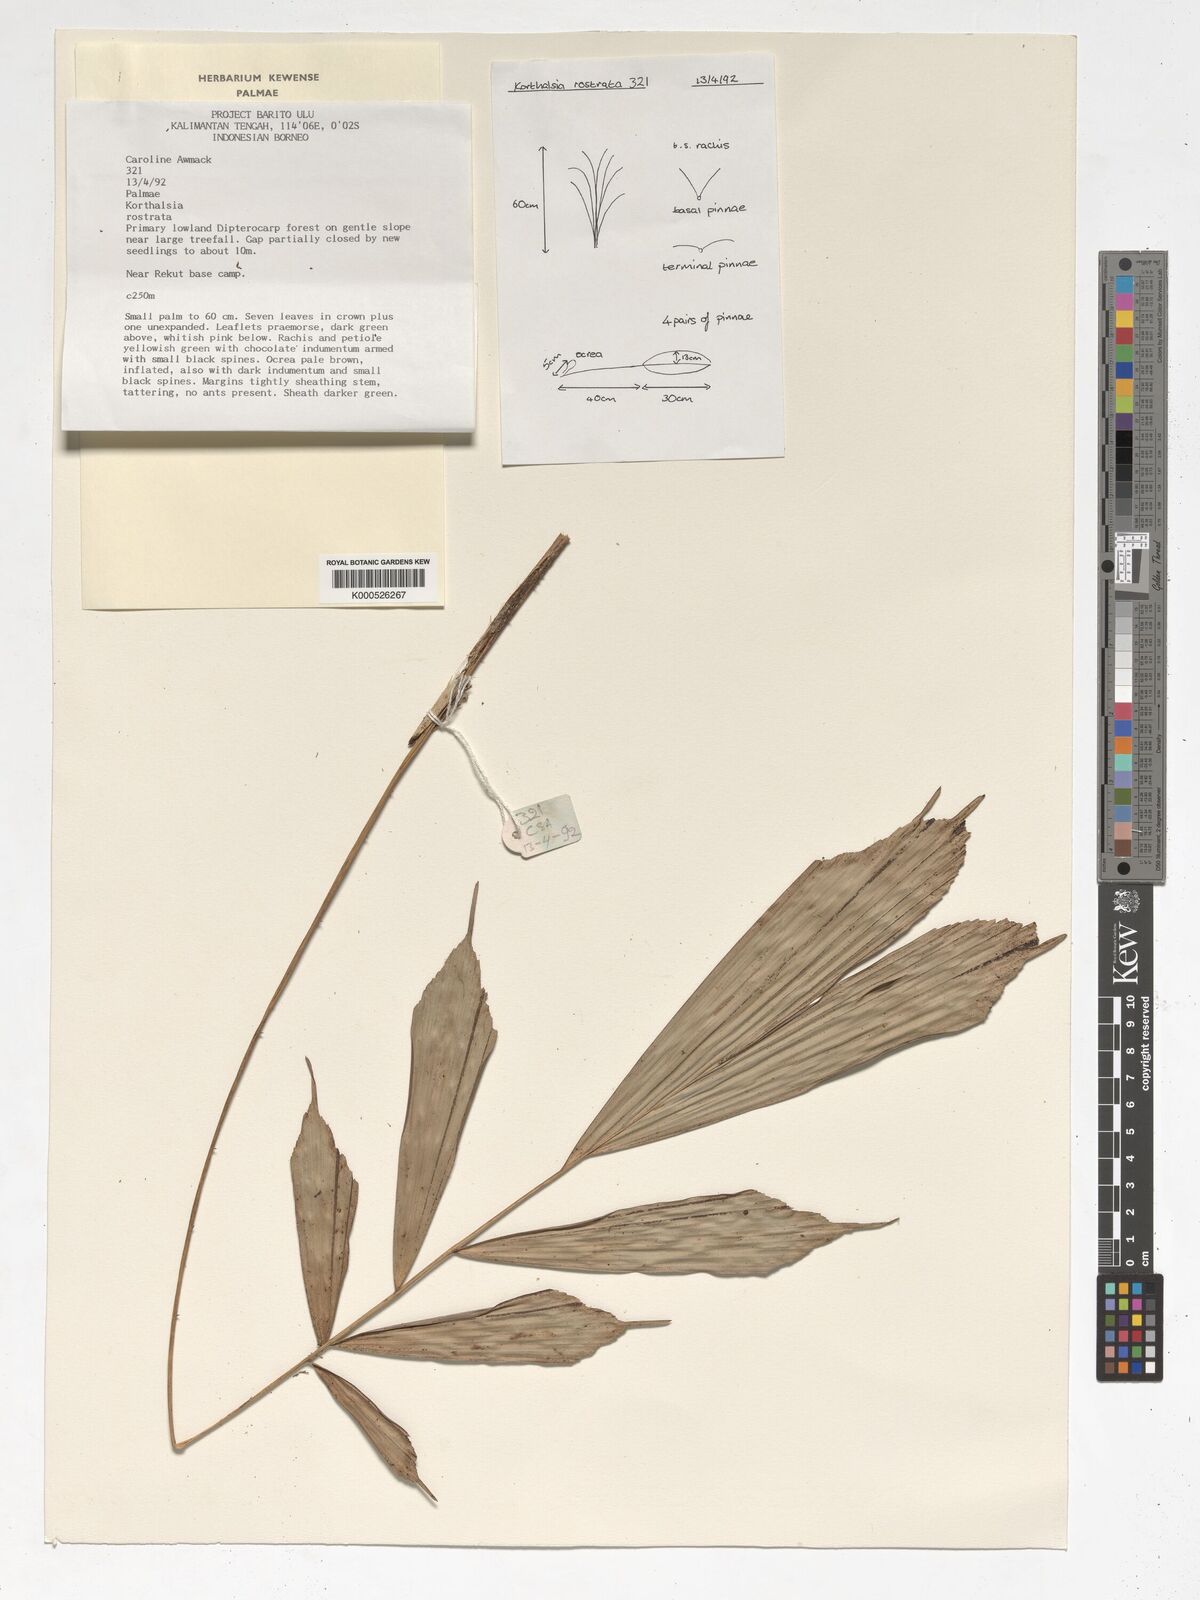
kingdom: Plantae
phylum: Tracheophyta
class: Liliopsida
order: Arecales
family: Arecaceae
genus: Korthalsia
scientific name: Korthalsia rostrata
